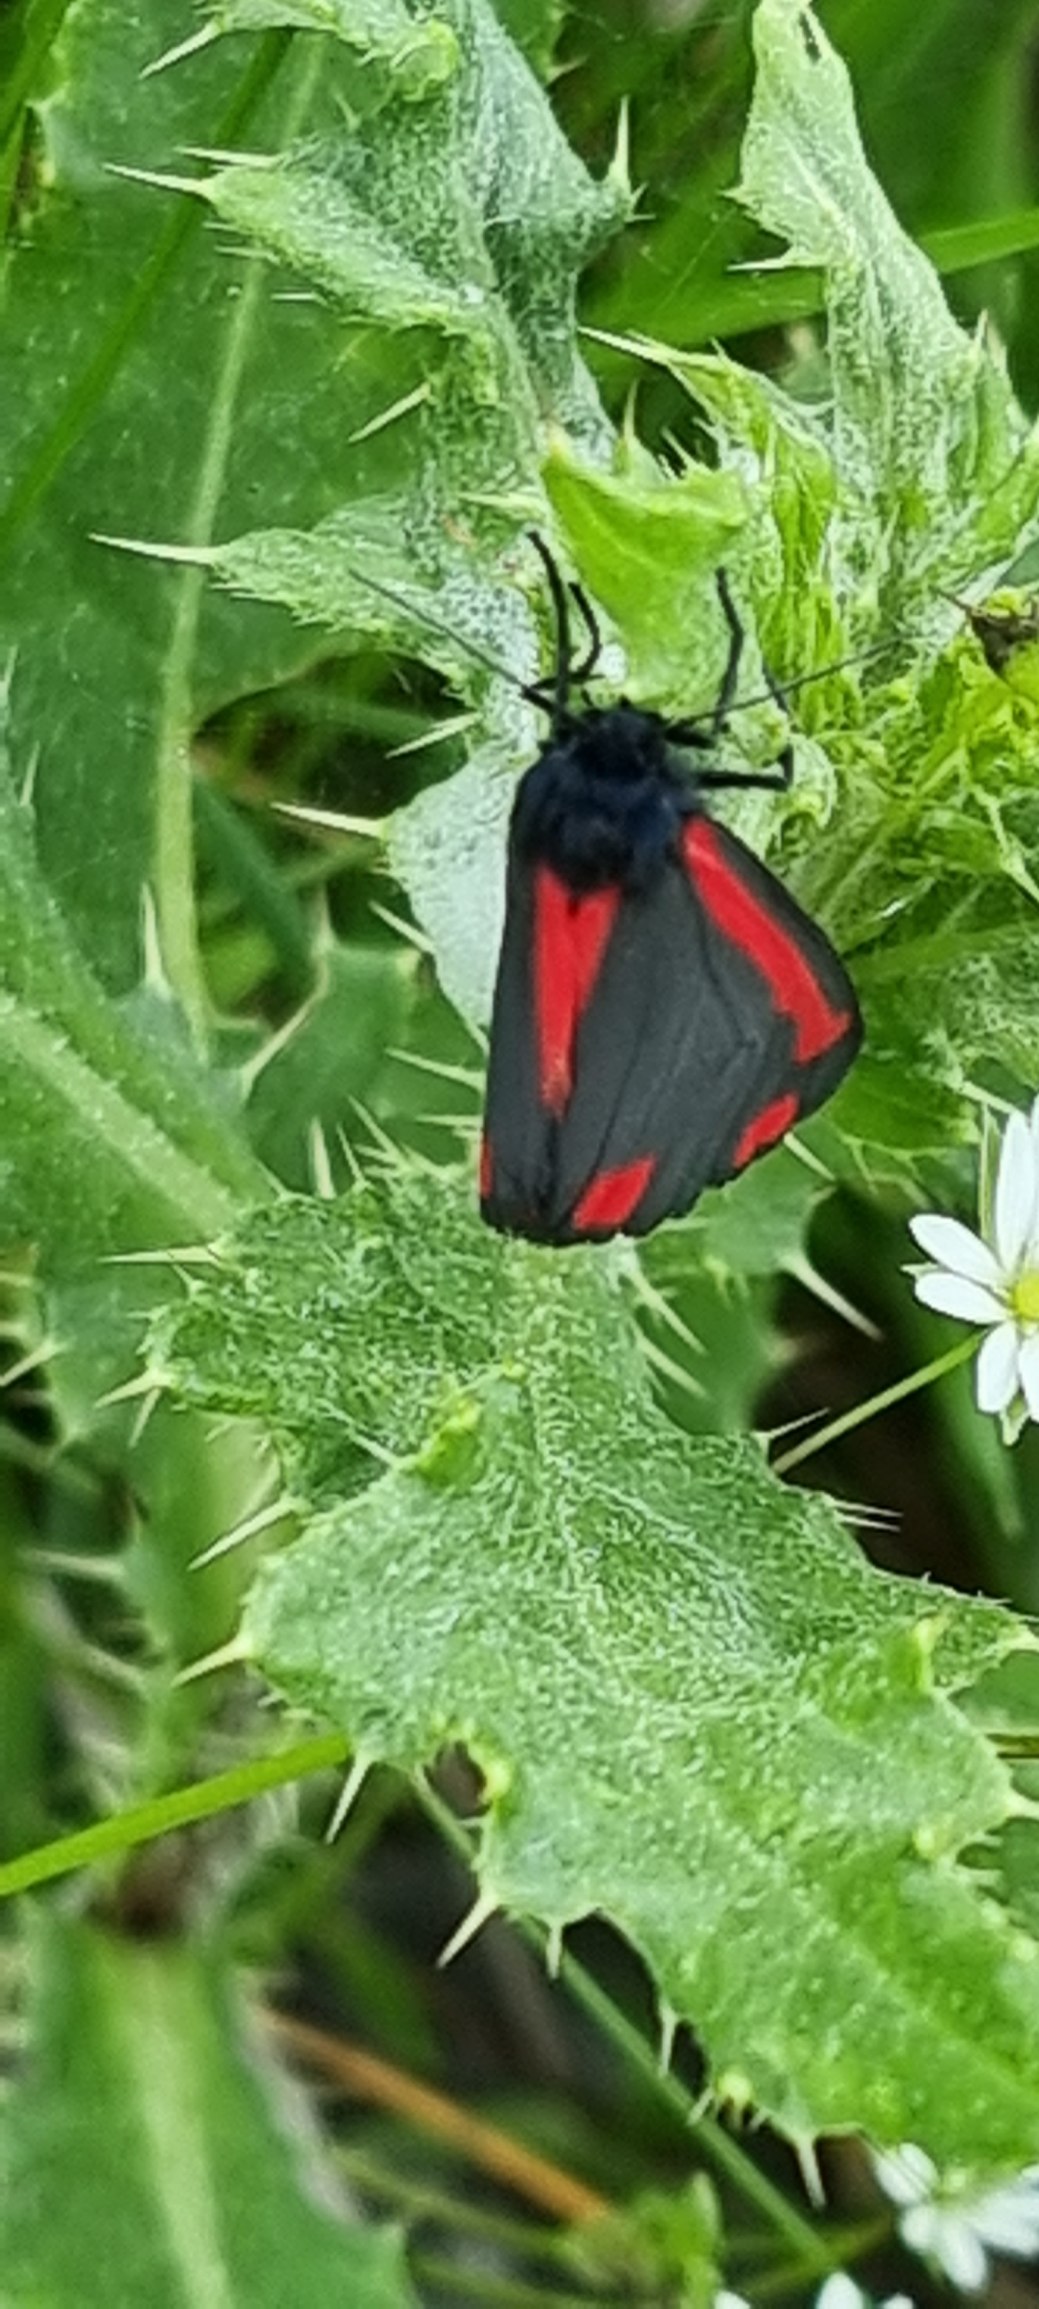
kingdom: Animalia
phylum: Arthropoda
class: Insecta
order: Lepidoptera
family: Erebidae
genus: Tyria
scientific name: Tyria jacobaeae
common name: Blodplet
